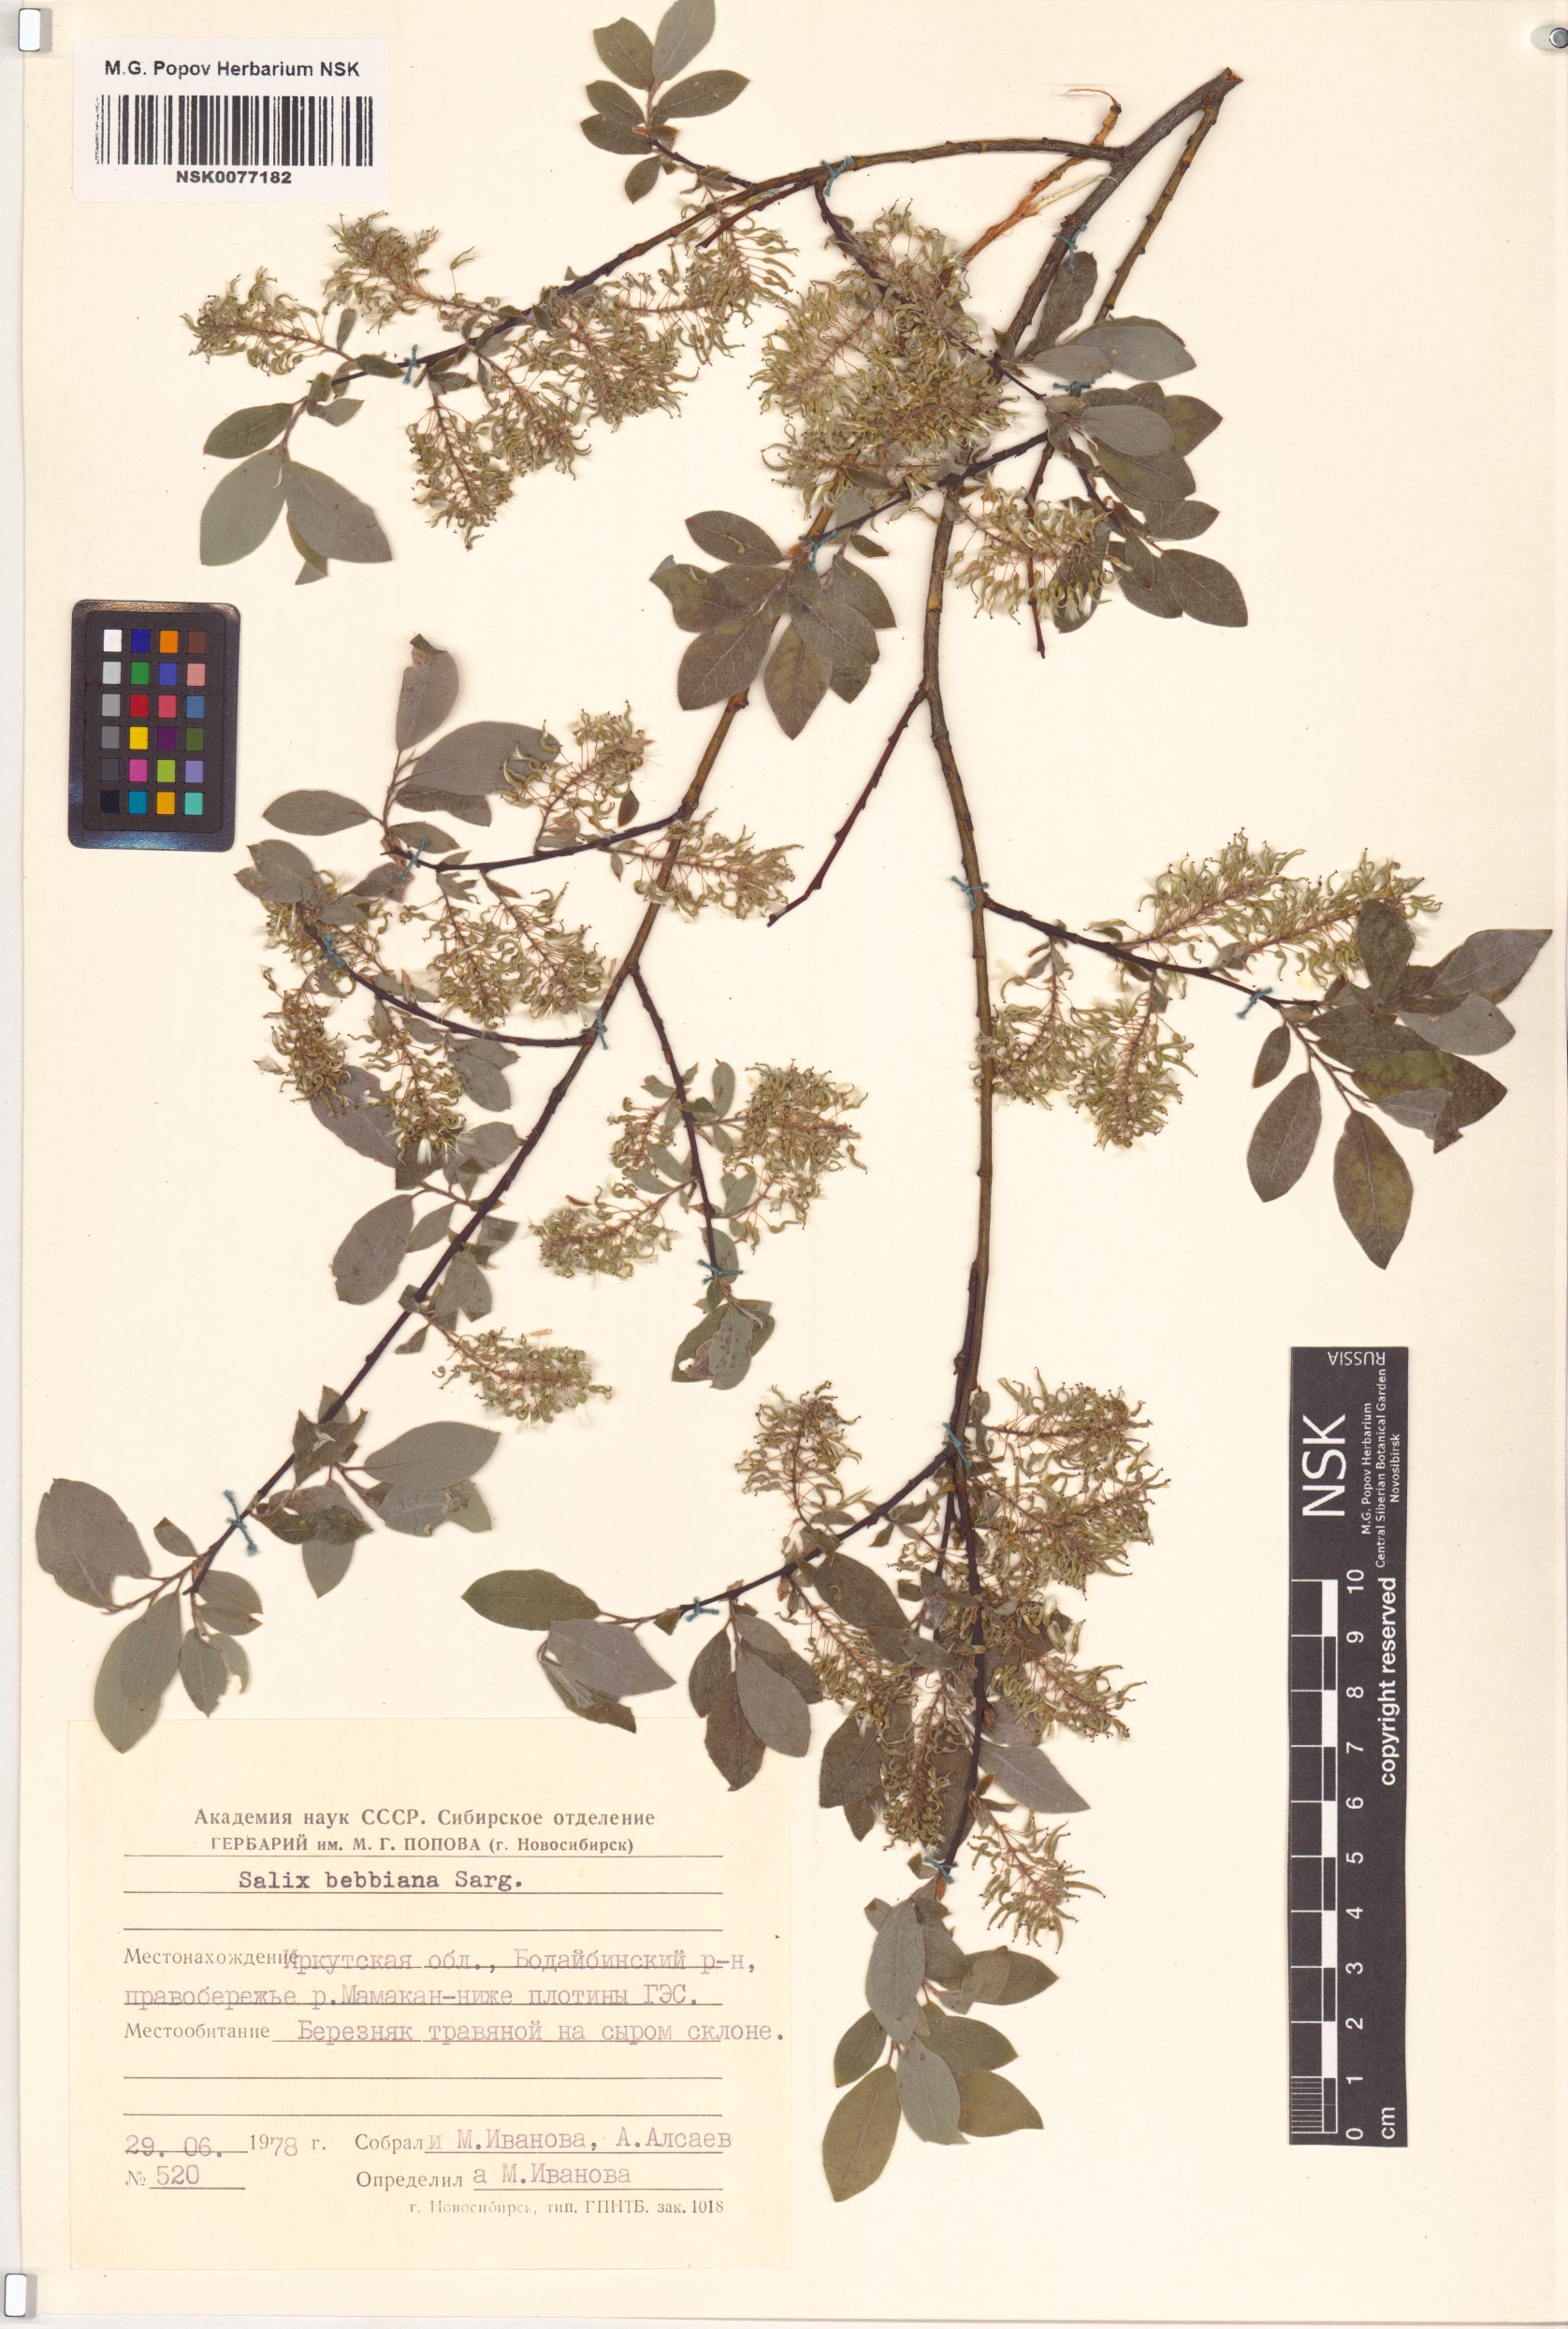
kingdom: Plantae
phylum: Tracheophyta
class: Magnoliopsida
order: Malpighiales
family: Salicaceae
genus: Salix
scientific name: Salix bebbiana
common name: Bebb's willow
